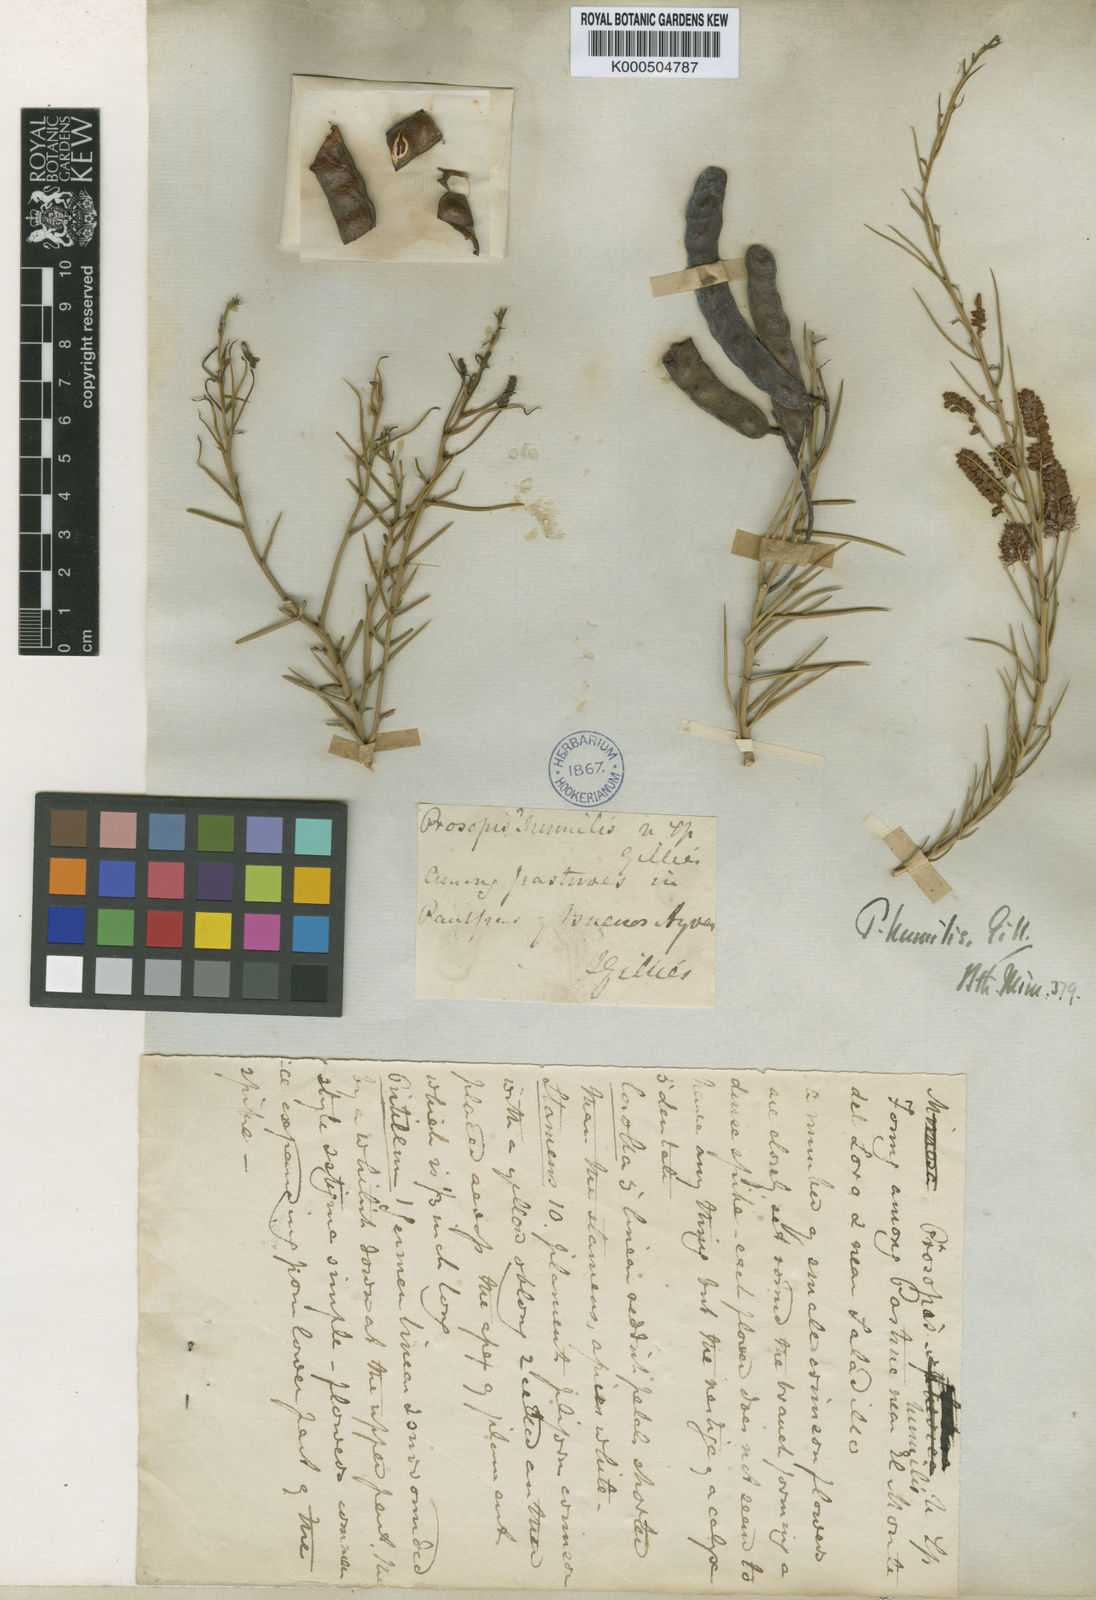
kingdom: Plantae
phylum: Tracheophyta
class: Magnoliopsida
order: Fabales
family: Fabaceae
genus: Prosopis
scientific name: Prosopis humilis
